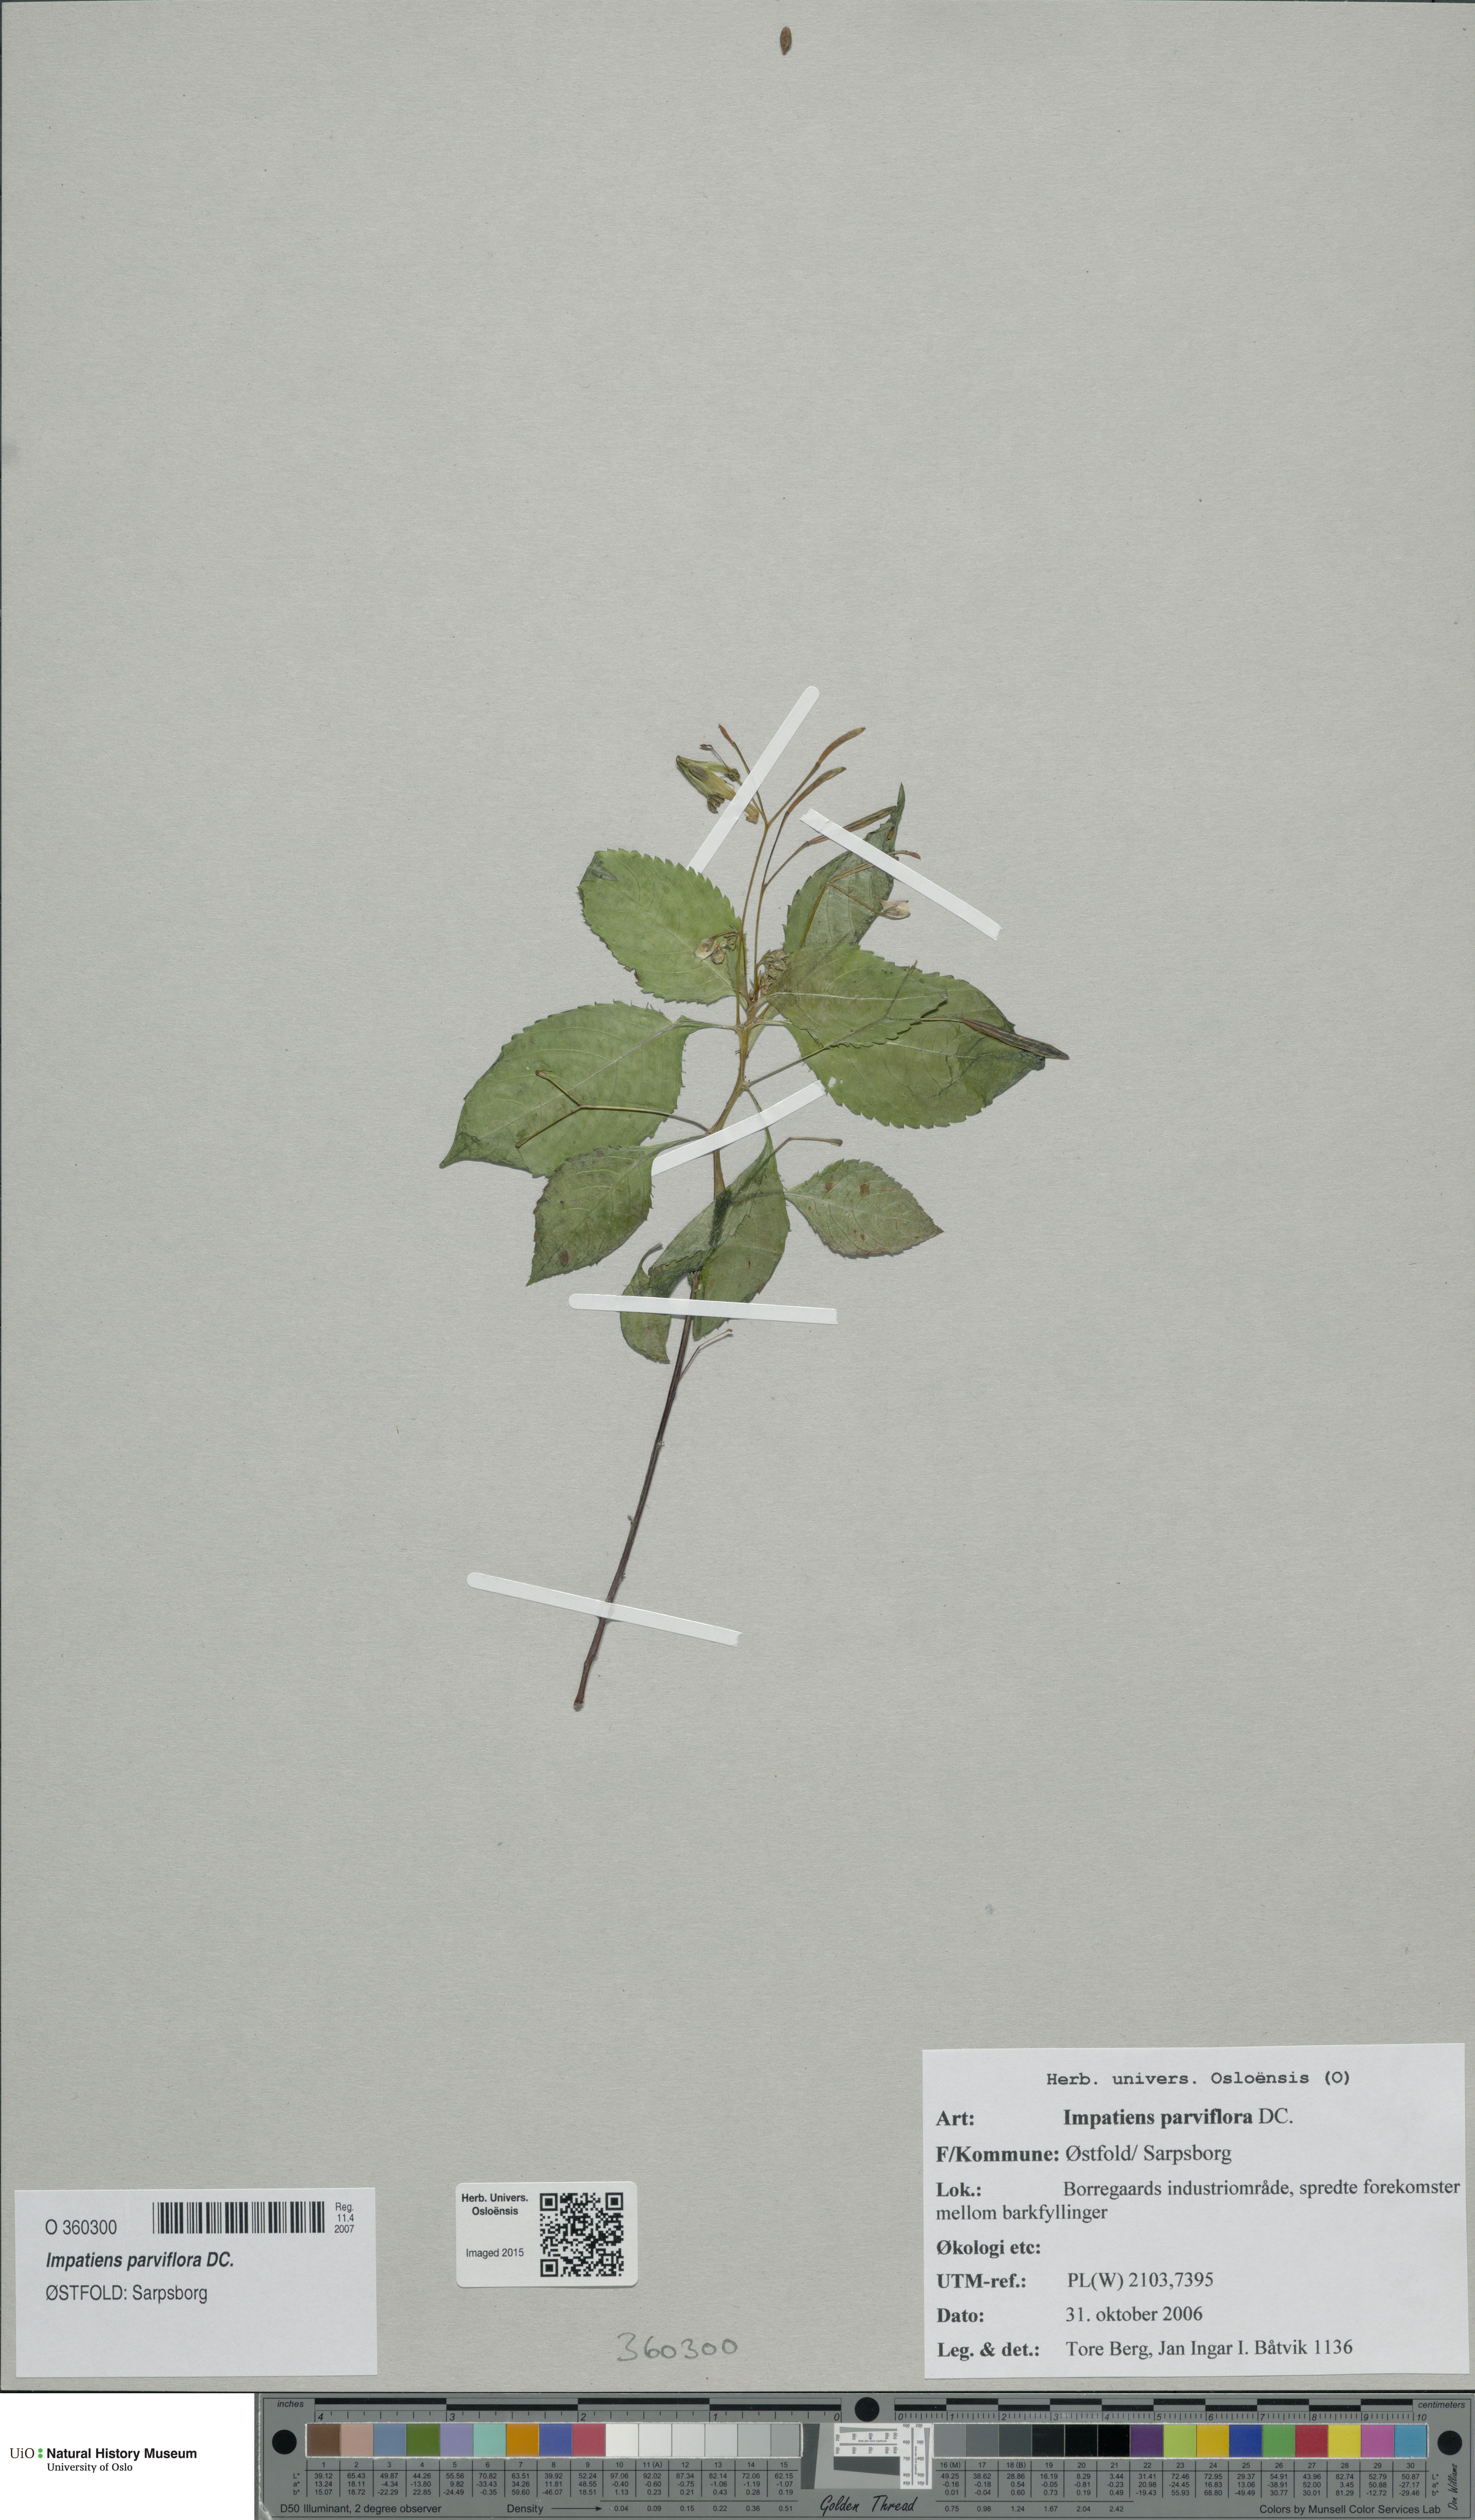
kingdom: Plantae
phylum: Tracheophyta
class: Magnoliopsida
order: Ericales
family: Balsaminaceae
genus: Impatiens
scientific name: Impatiens parviflora
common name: Small balsam
